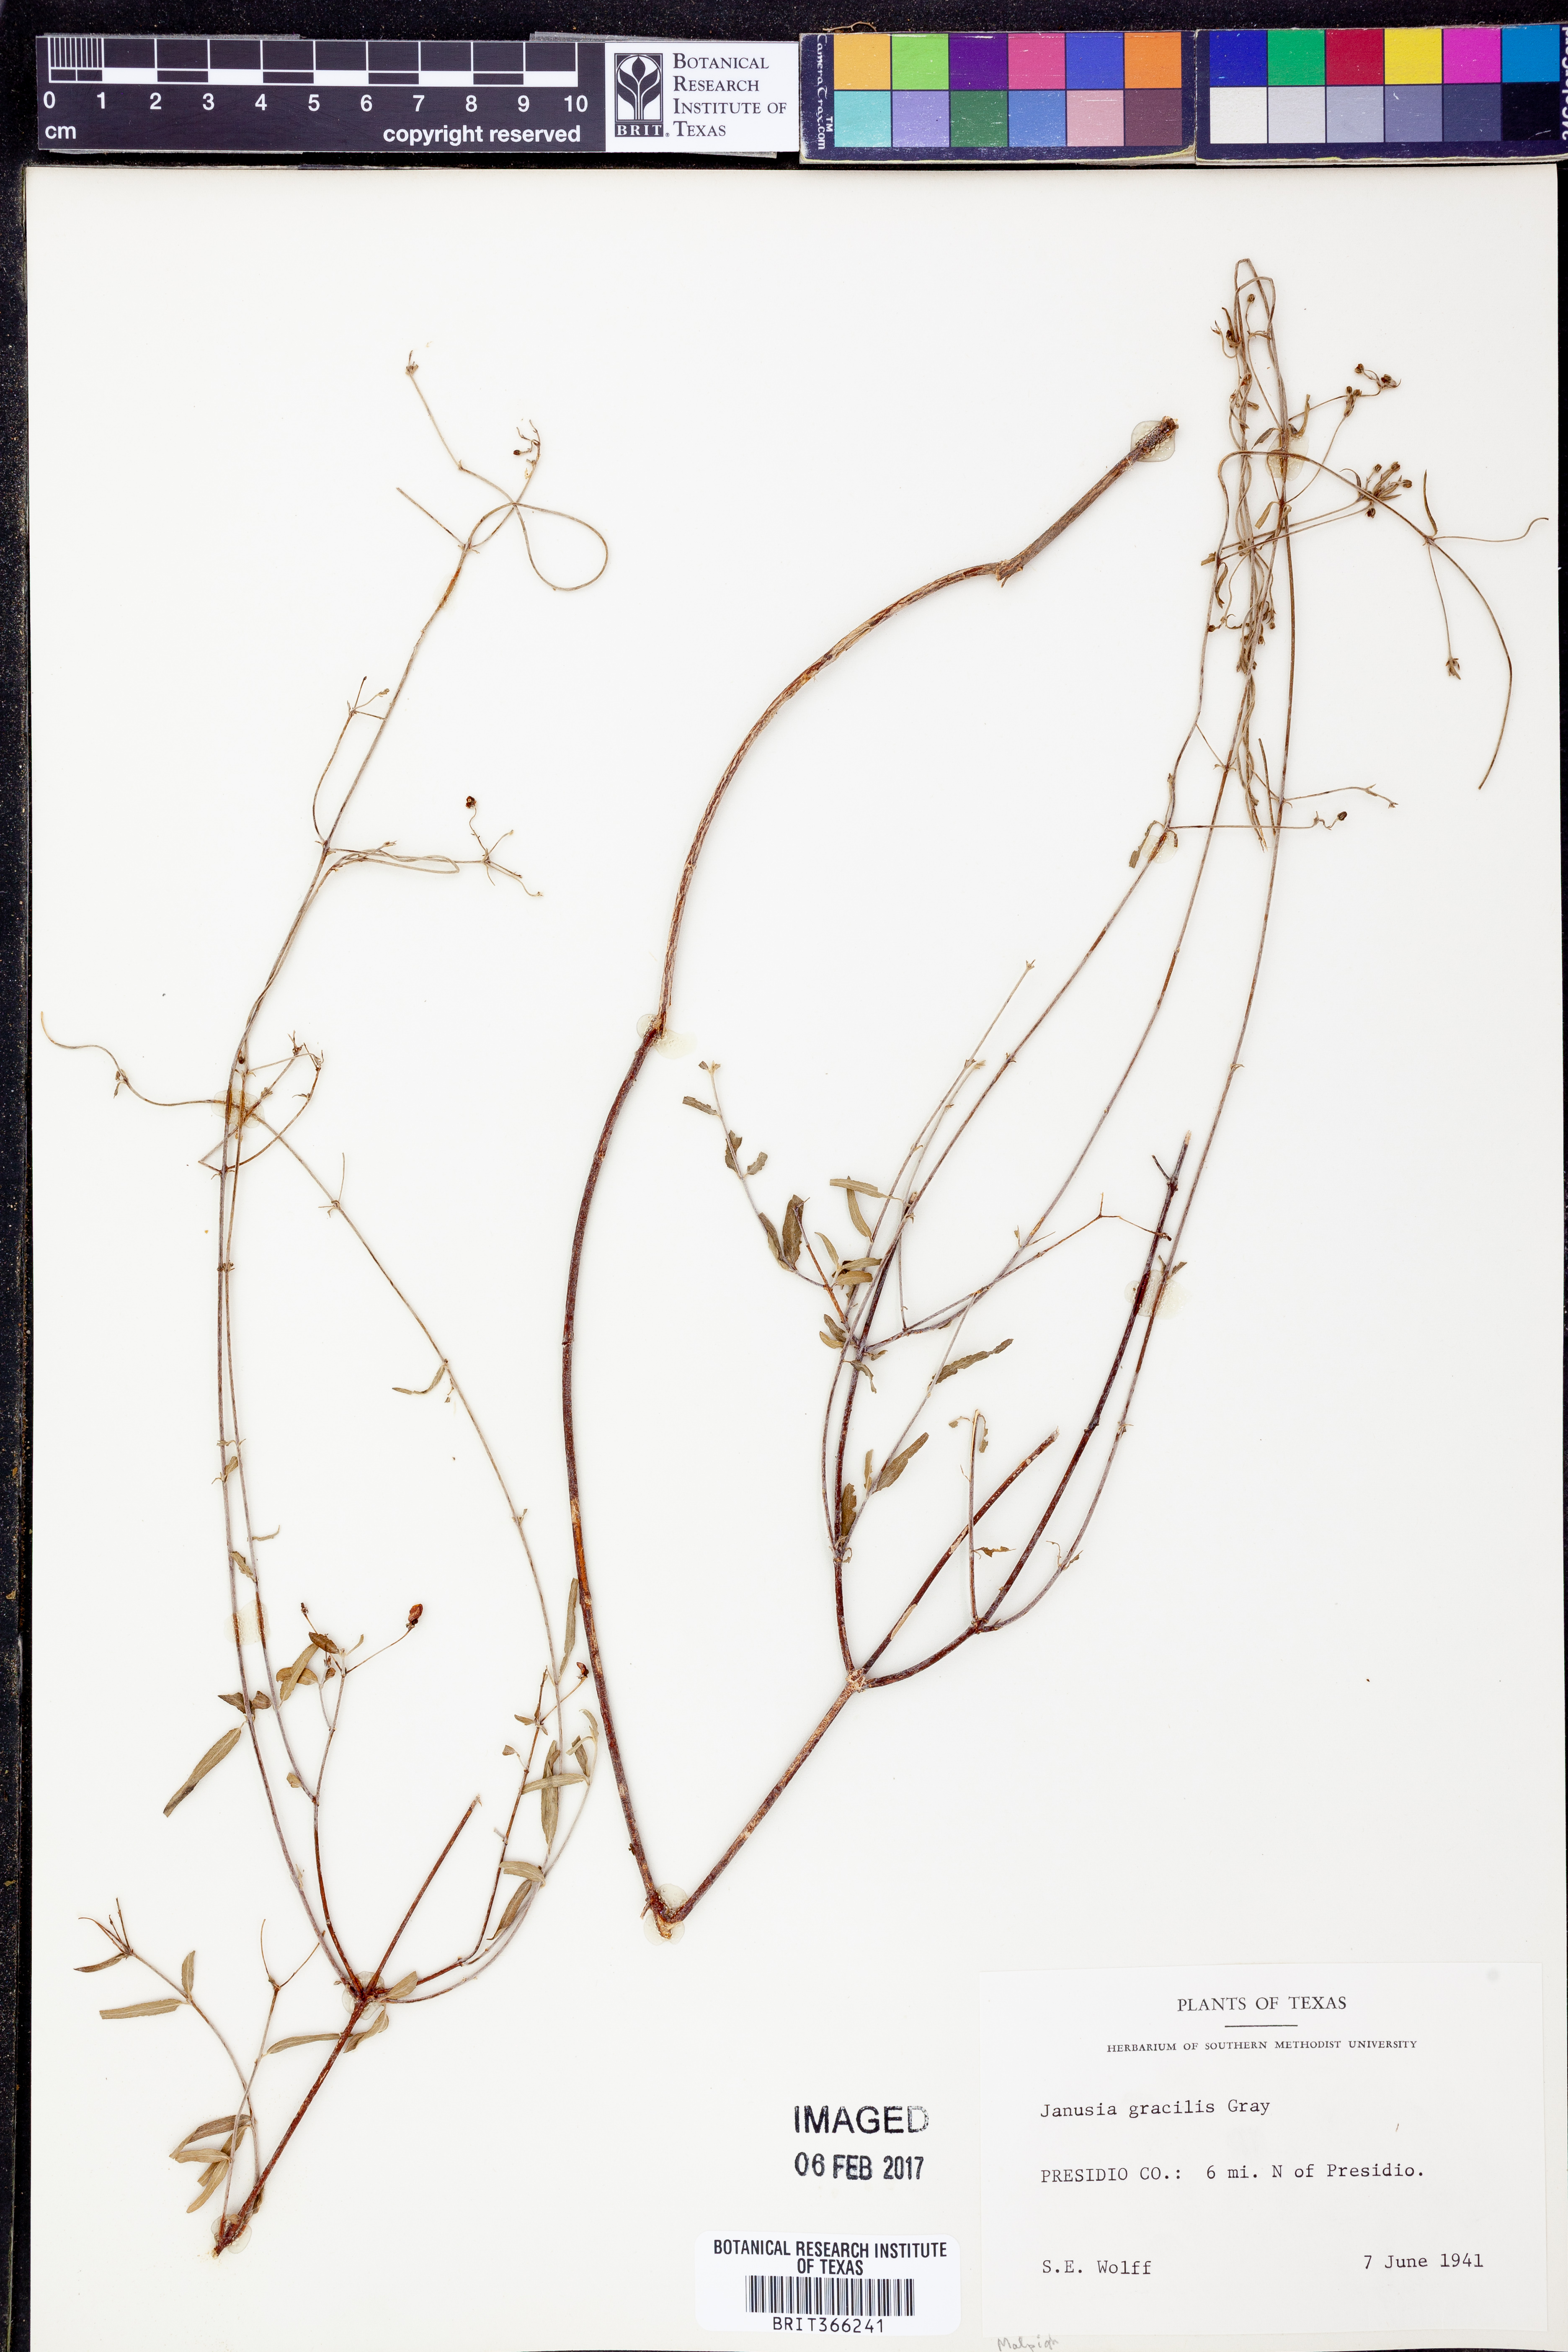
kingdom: Plantae
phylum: Tracheophyta
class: Magnoliopsida
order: Malpighiales
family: Malpighiaceae
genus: Cottsia
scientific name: Cottsia gracilis
